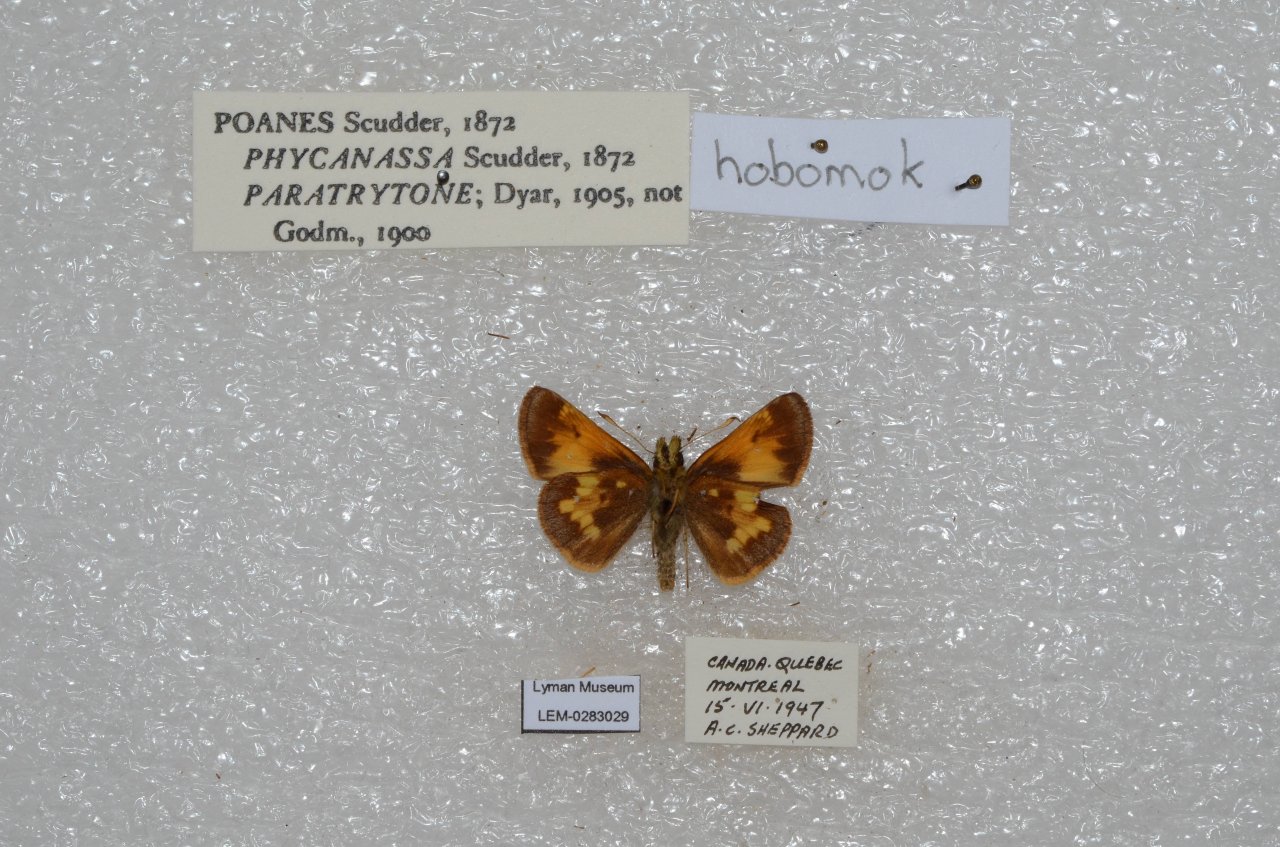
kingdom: Animalia
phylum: Arthropoda
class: Insecta
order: Lepidoptera
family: Hesperiidae
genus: Lon
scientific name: Lon hobomok
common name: Hobomok Skipper
